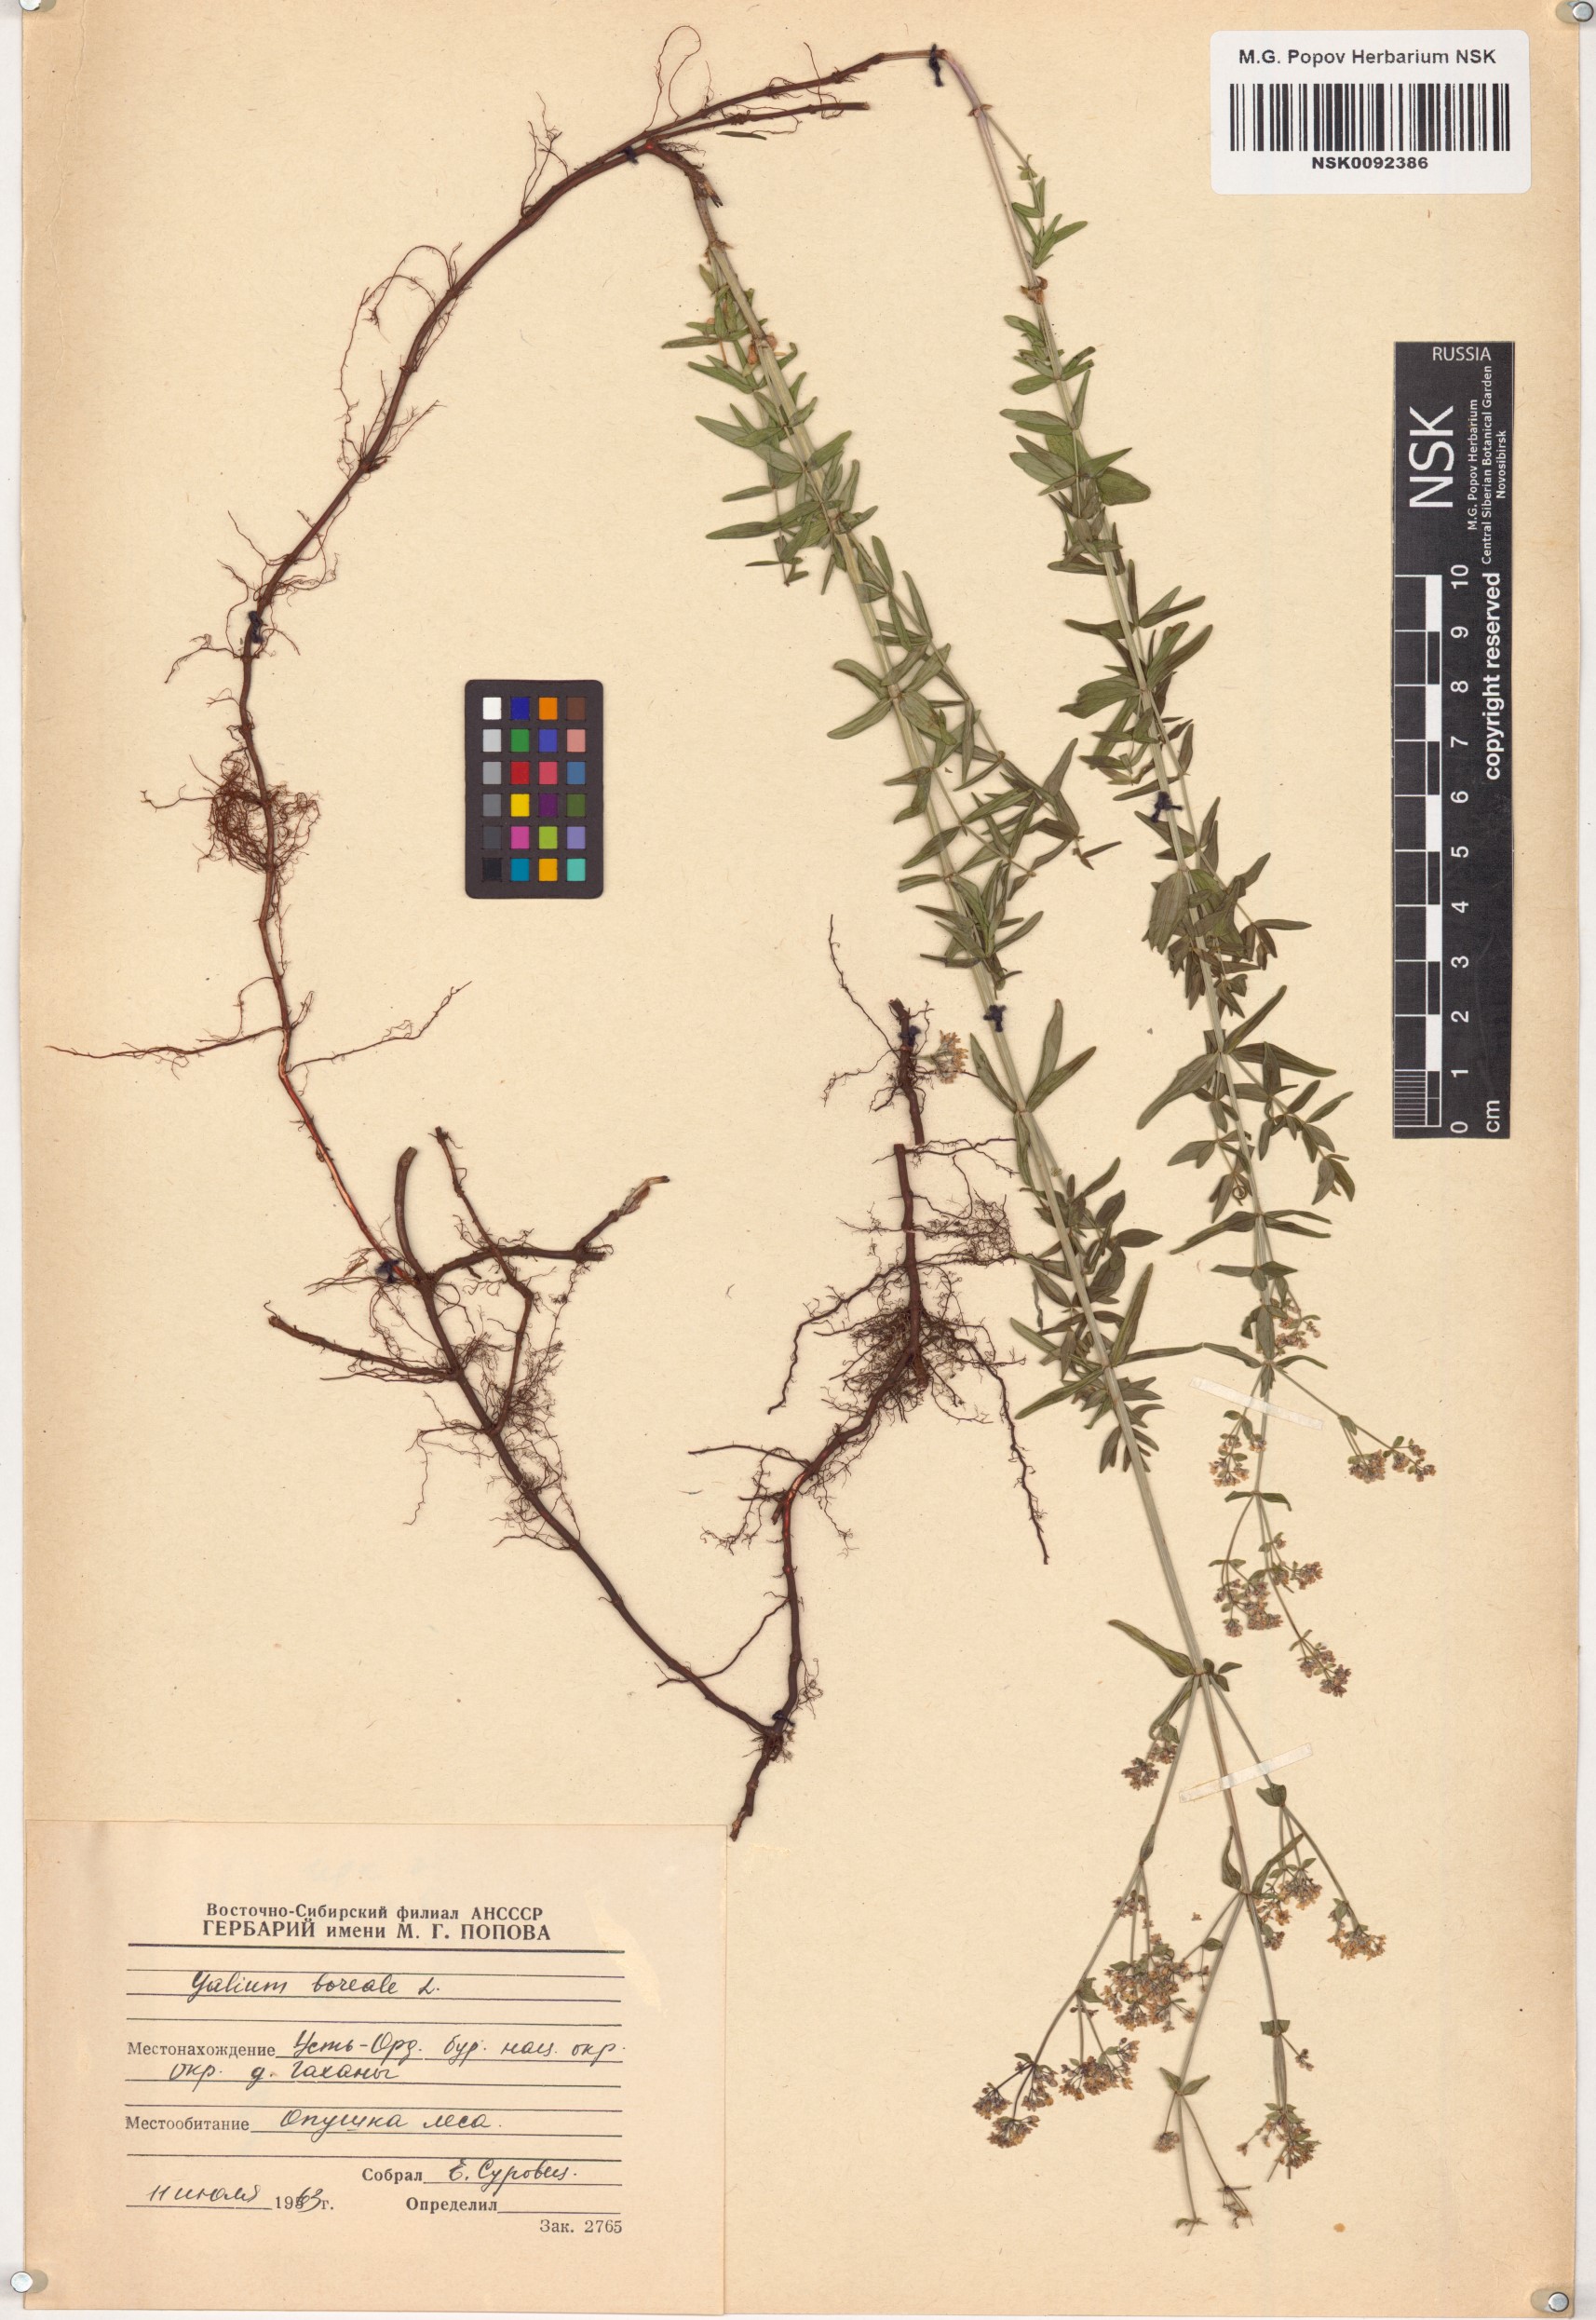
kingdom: Plantae
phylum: Tracheophyta
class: Magnoliopsida
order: Gentianales
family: Rubiaceae
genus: Galium
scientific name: Galium boreale
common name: Northern bedstraw
